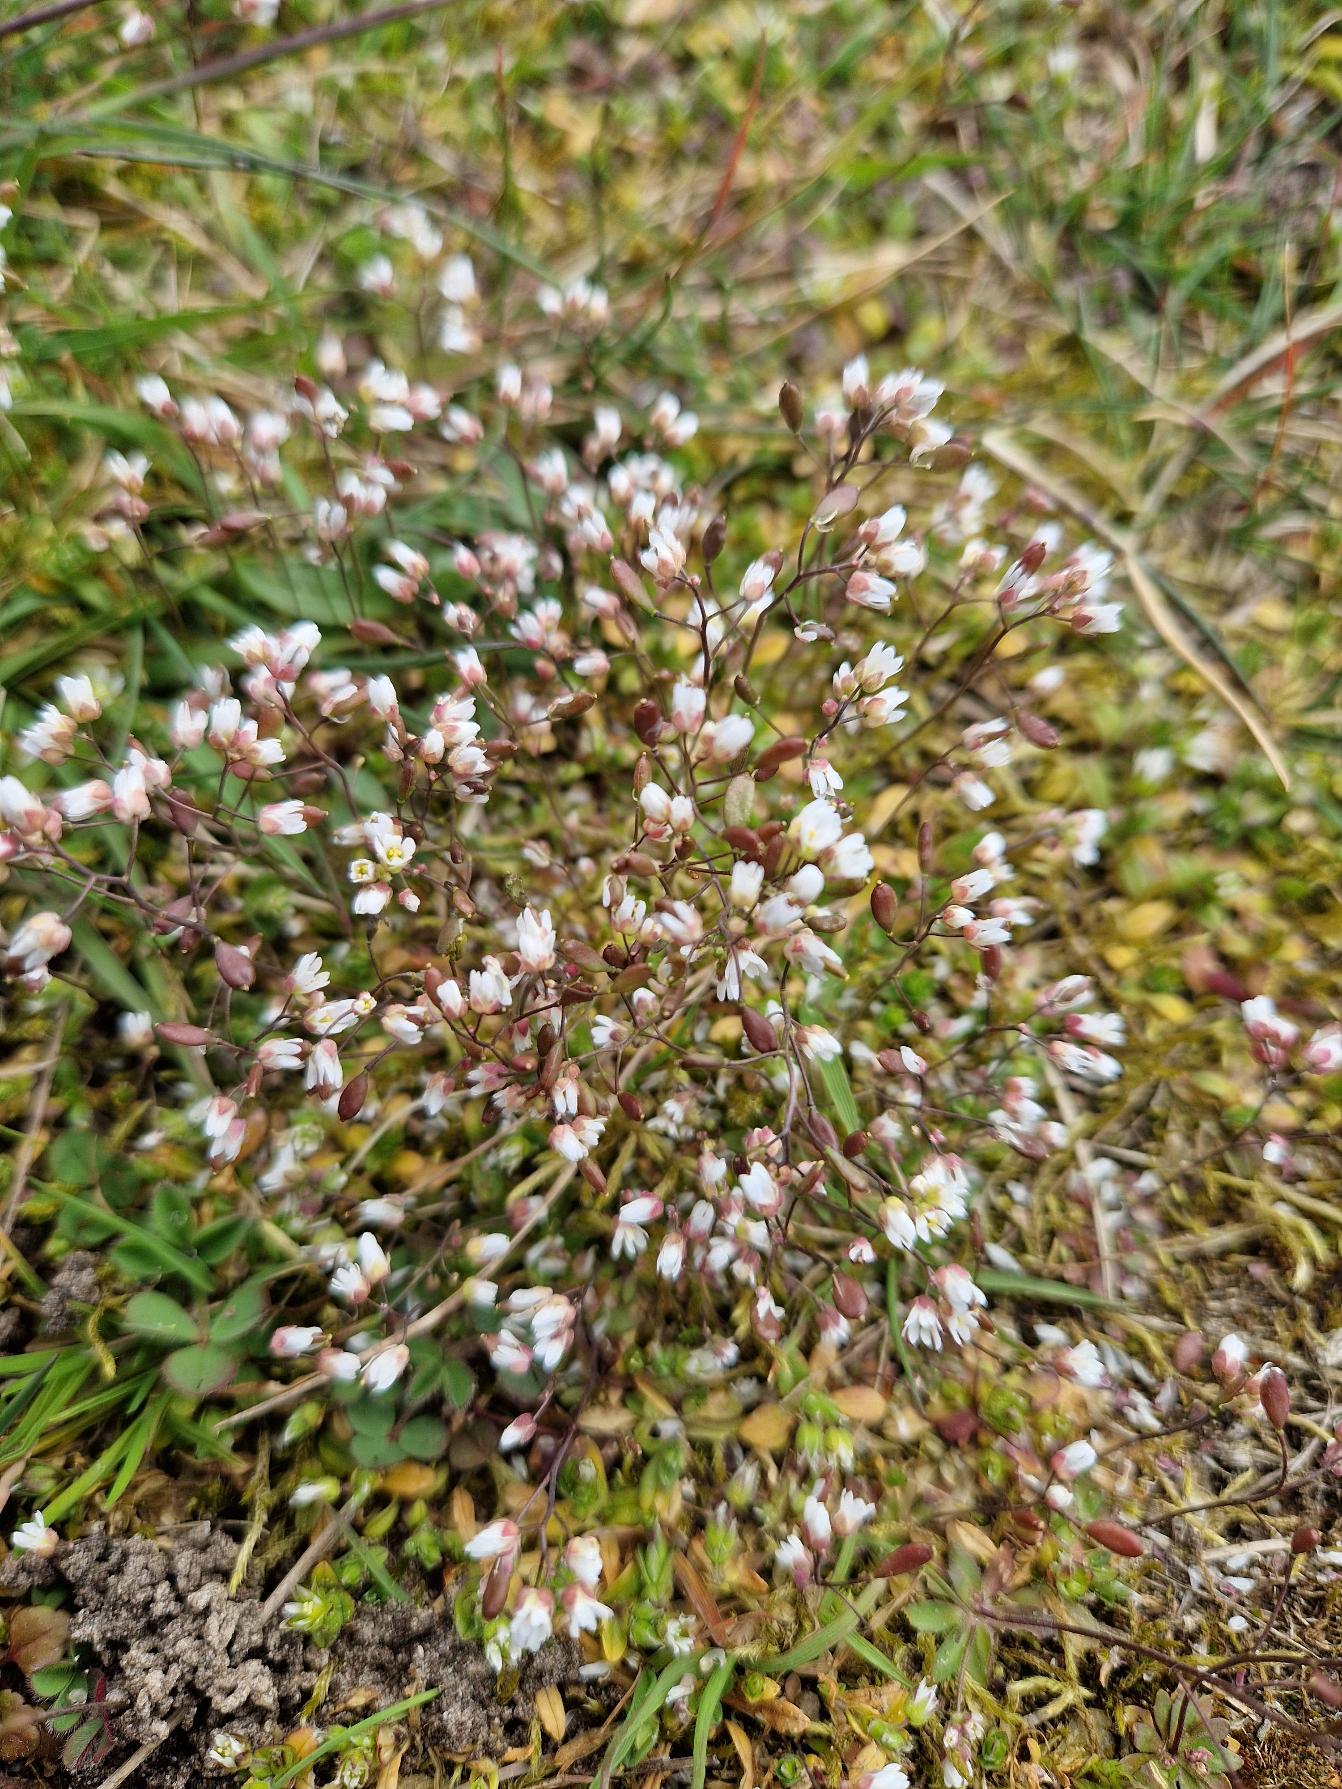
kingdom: Plantae
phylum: Tracheophyta
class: Magnoliopsida
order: Brassicales
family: Brassicaceae
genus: Draba
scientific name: Draba verna
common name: Vår-gæslingeblomst
